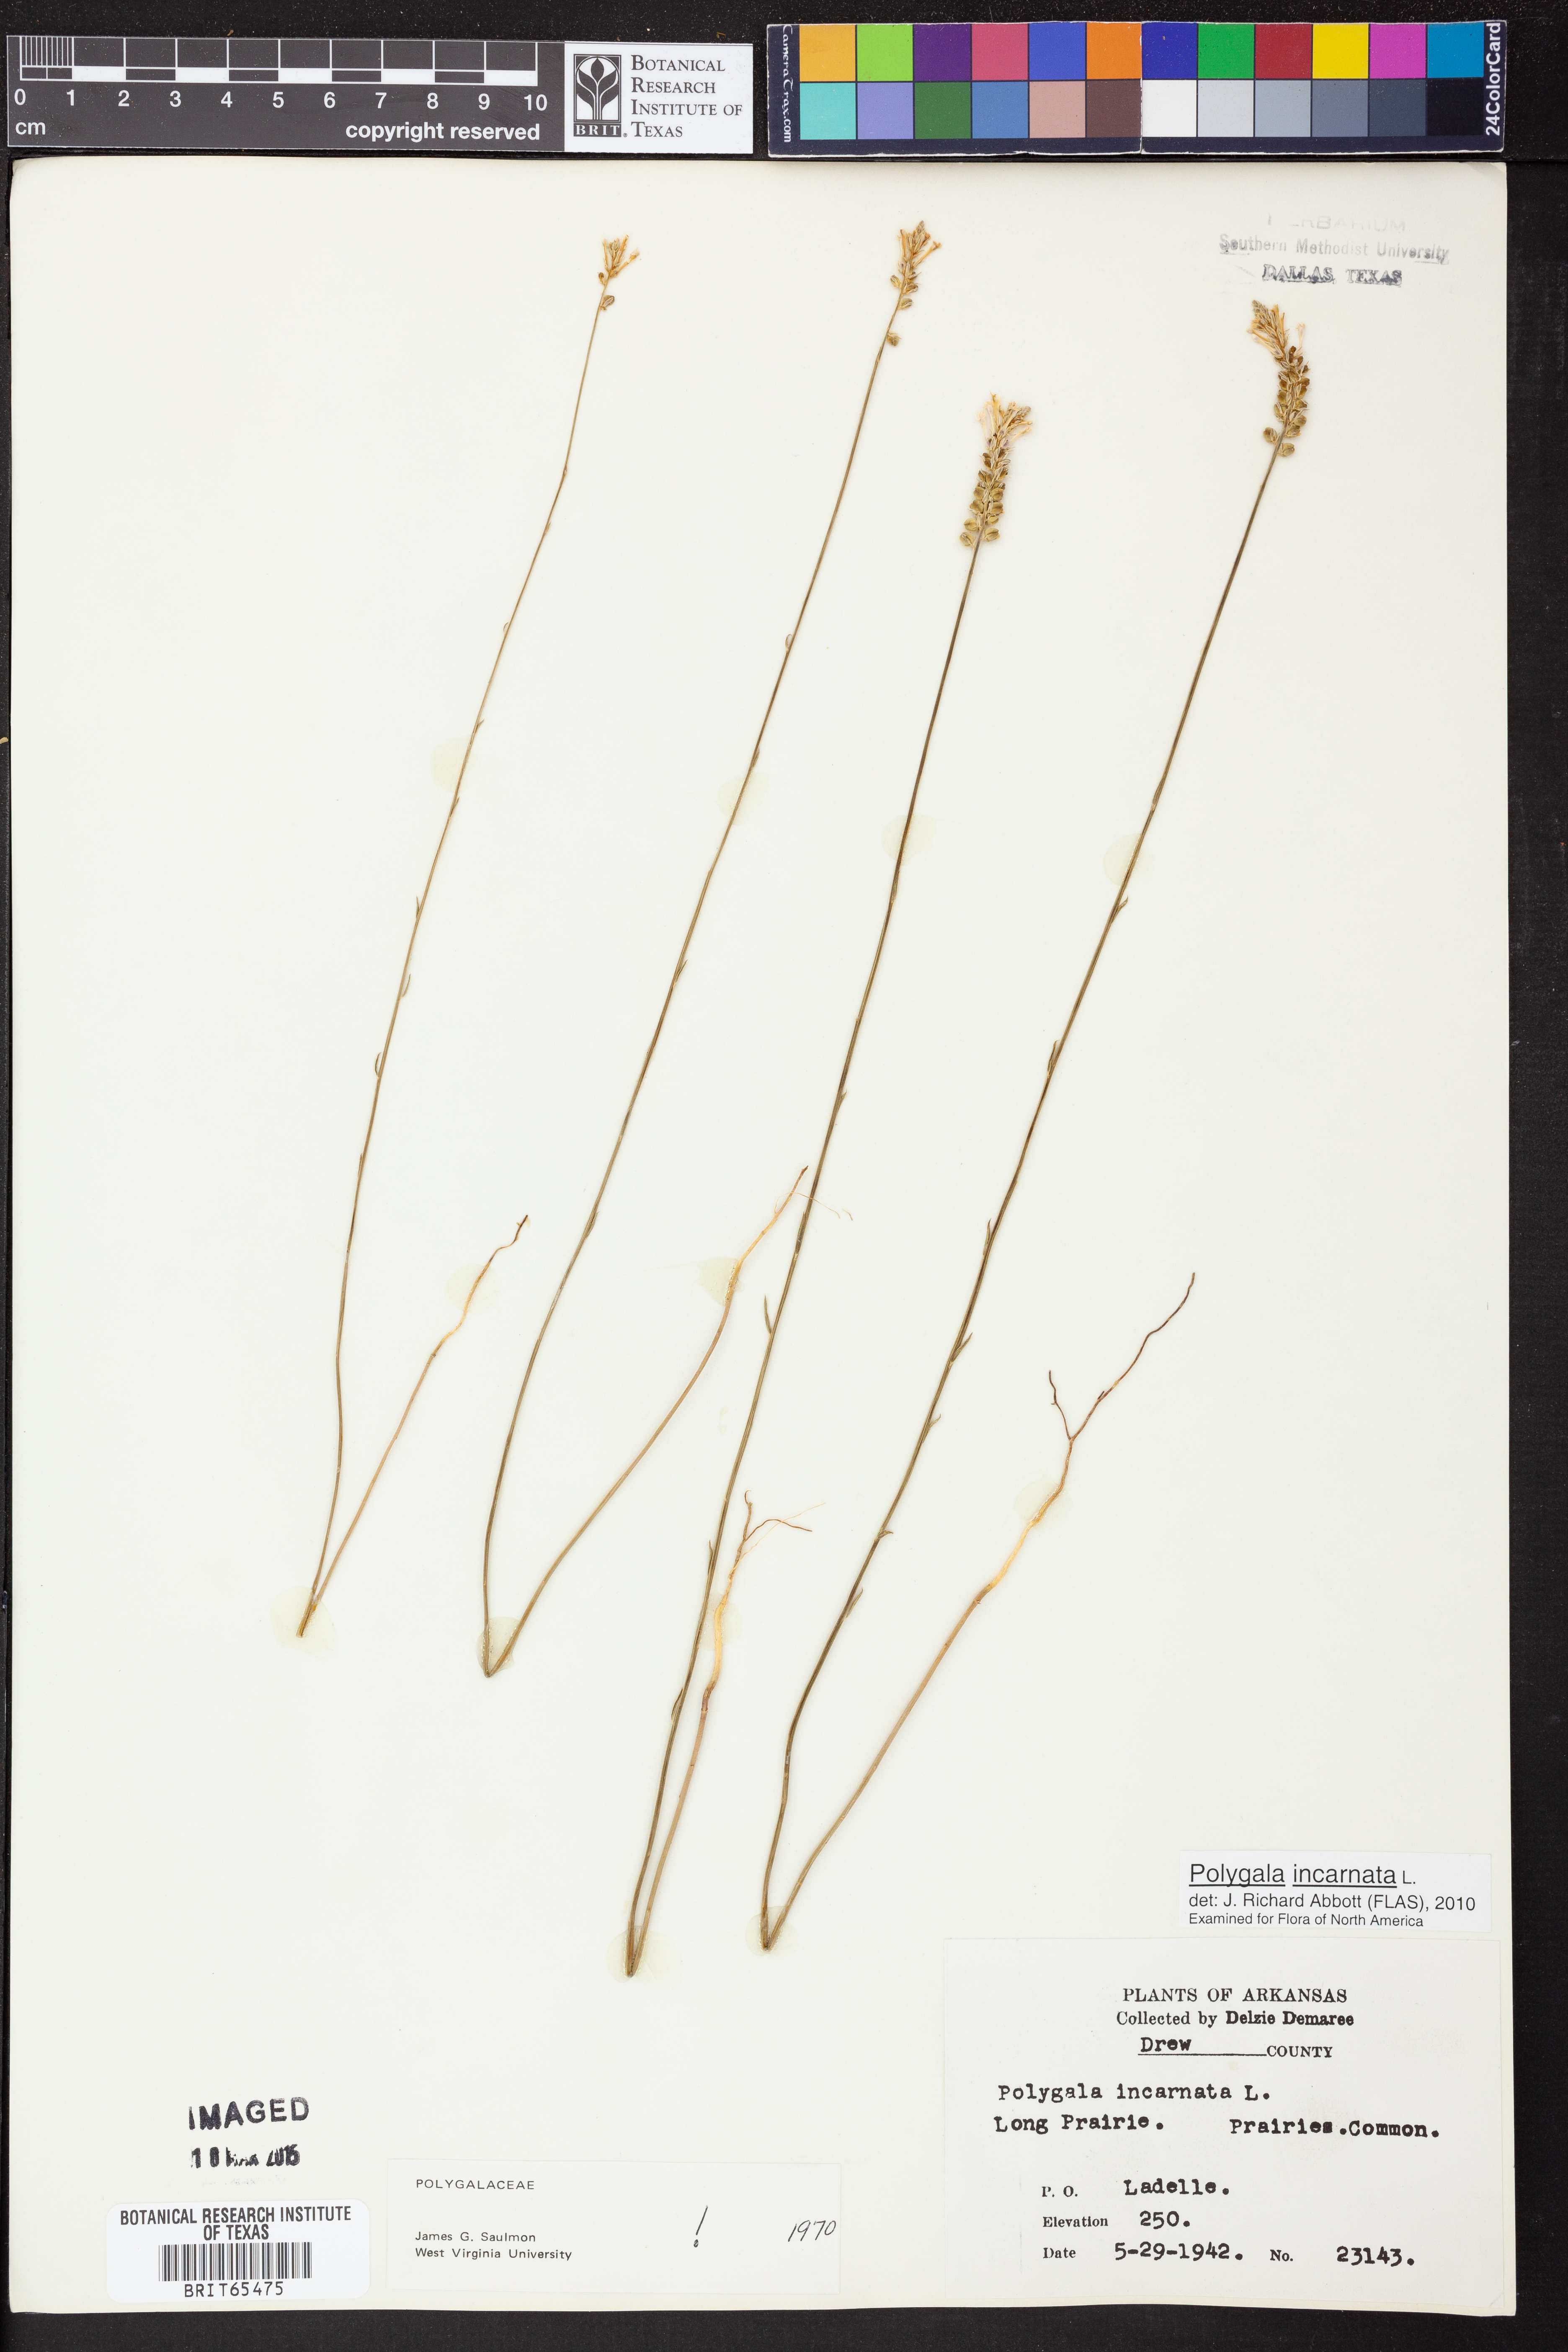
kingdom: Plantae
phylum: Tracheophyta
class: Magnoliopsida
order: Fabales
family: Polygalaceae
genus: Polygala
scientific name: Polygala incarnata
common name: Pink milkwort
